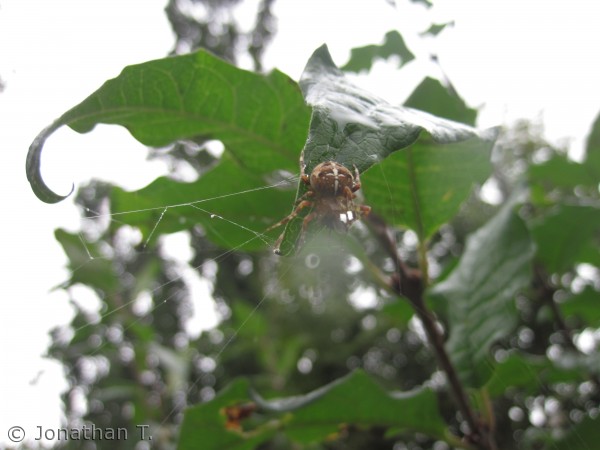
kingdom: Animalia
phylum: Arthropoda
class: Arachnida
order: Araneae
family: Araneidae
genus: Araneus
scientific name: Araneus diadematus
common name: Korsedderkop
